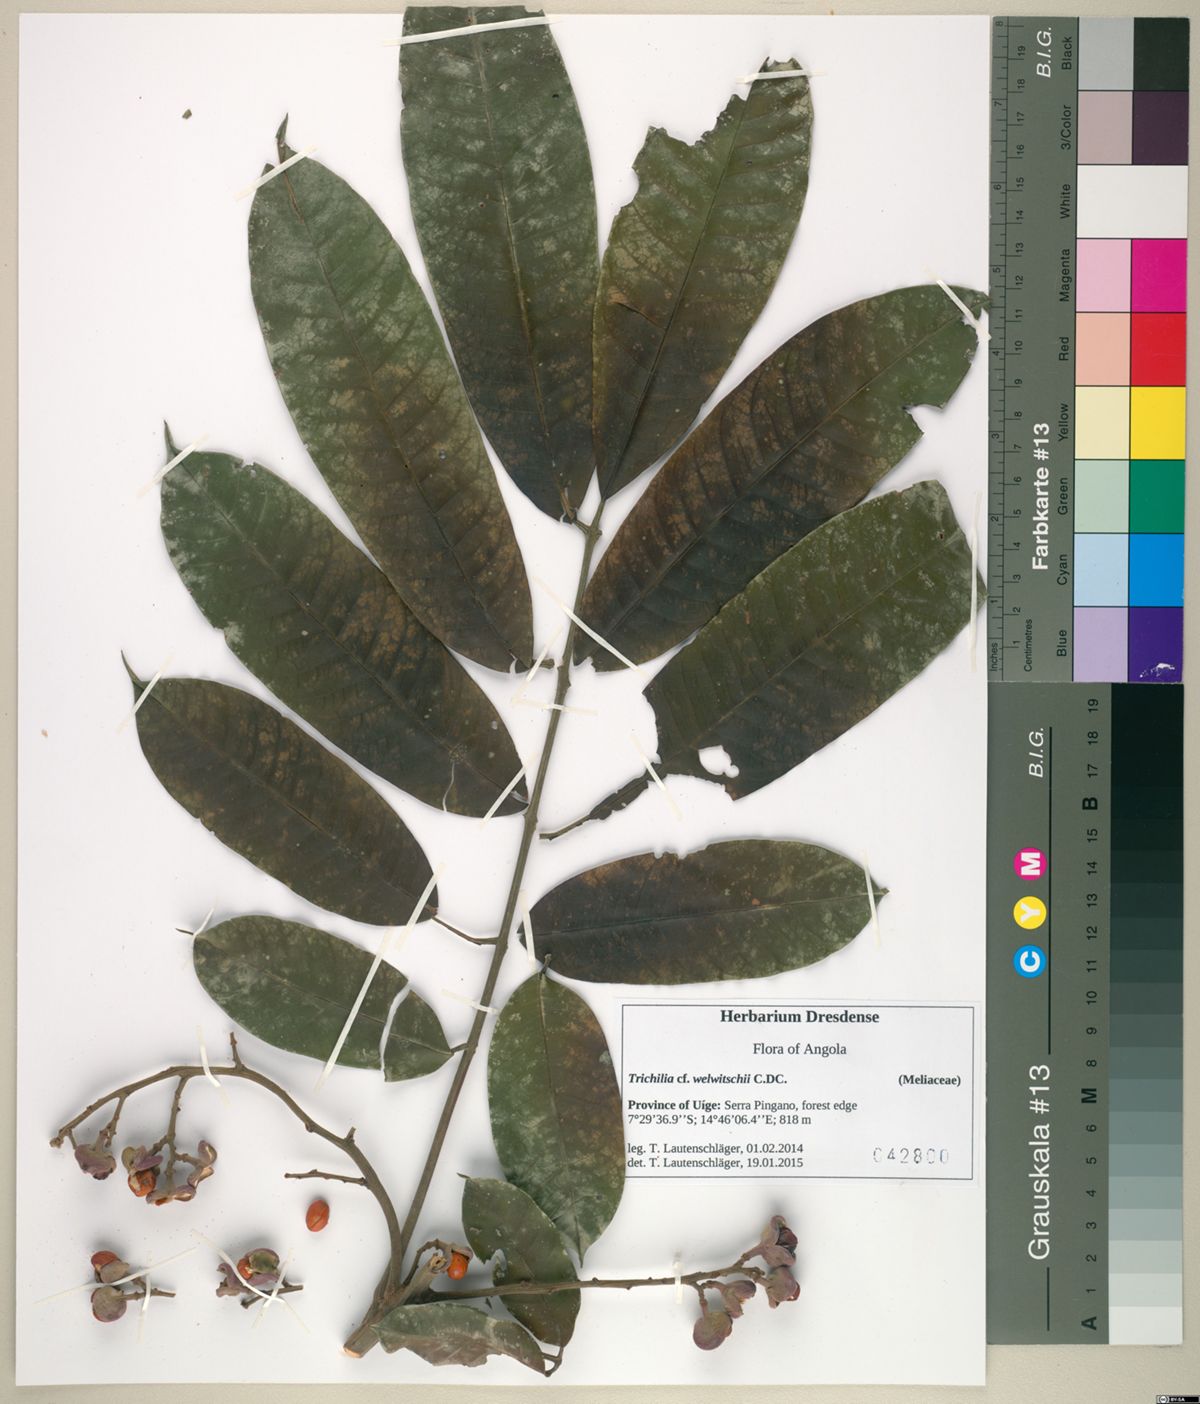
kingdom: Plantae
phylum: Tracheophyta
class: Magnoliopsida
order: Sapindales
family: Meliaceae
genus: Trichilia
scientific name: Trichilia welwitschii
